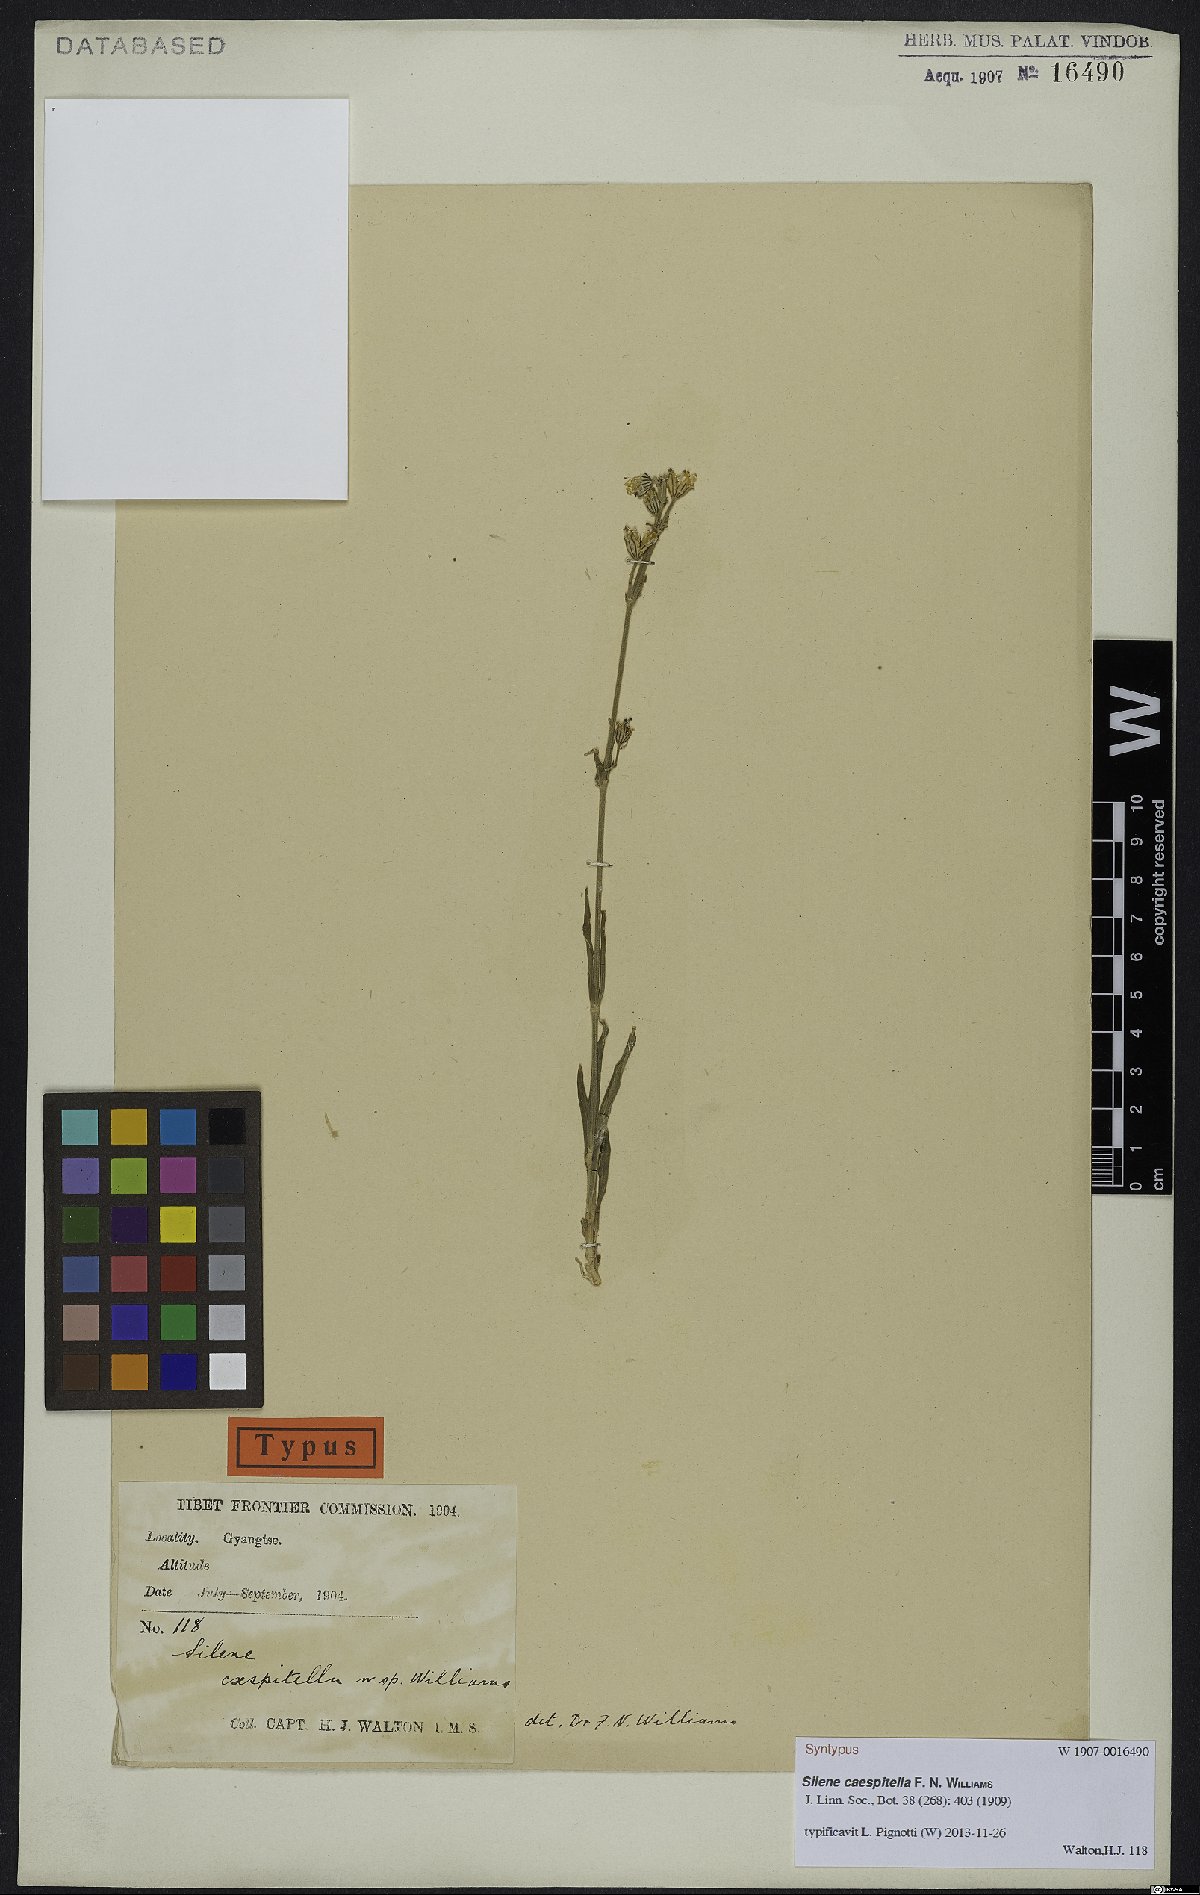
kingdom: Plantae
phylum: Tracheophyta
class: Magnoliopsida
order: Caryophyllales
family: Caryophyllaceae
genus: Silene
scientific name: Silene caespitella
